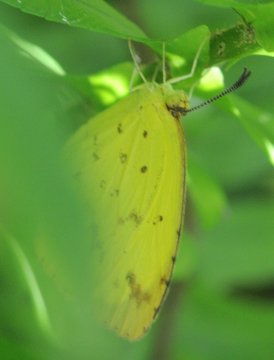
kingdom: Animalia
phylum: Arthropoda
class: Insecta
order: Lepidoptera
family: Pieridae
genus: Eurema
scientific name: Eurema desjardinsii
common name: Angled Grass Yellow
